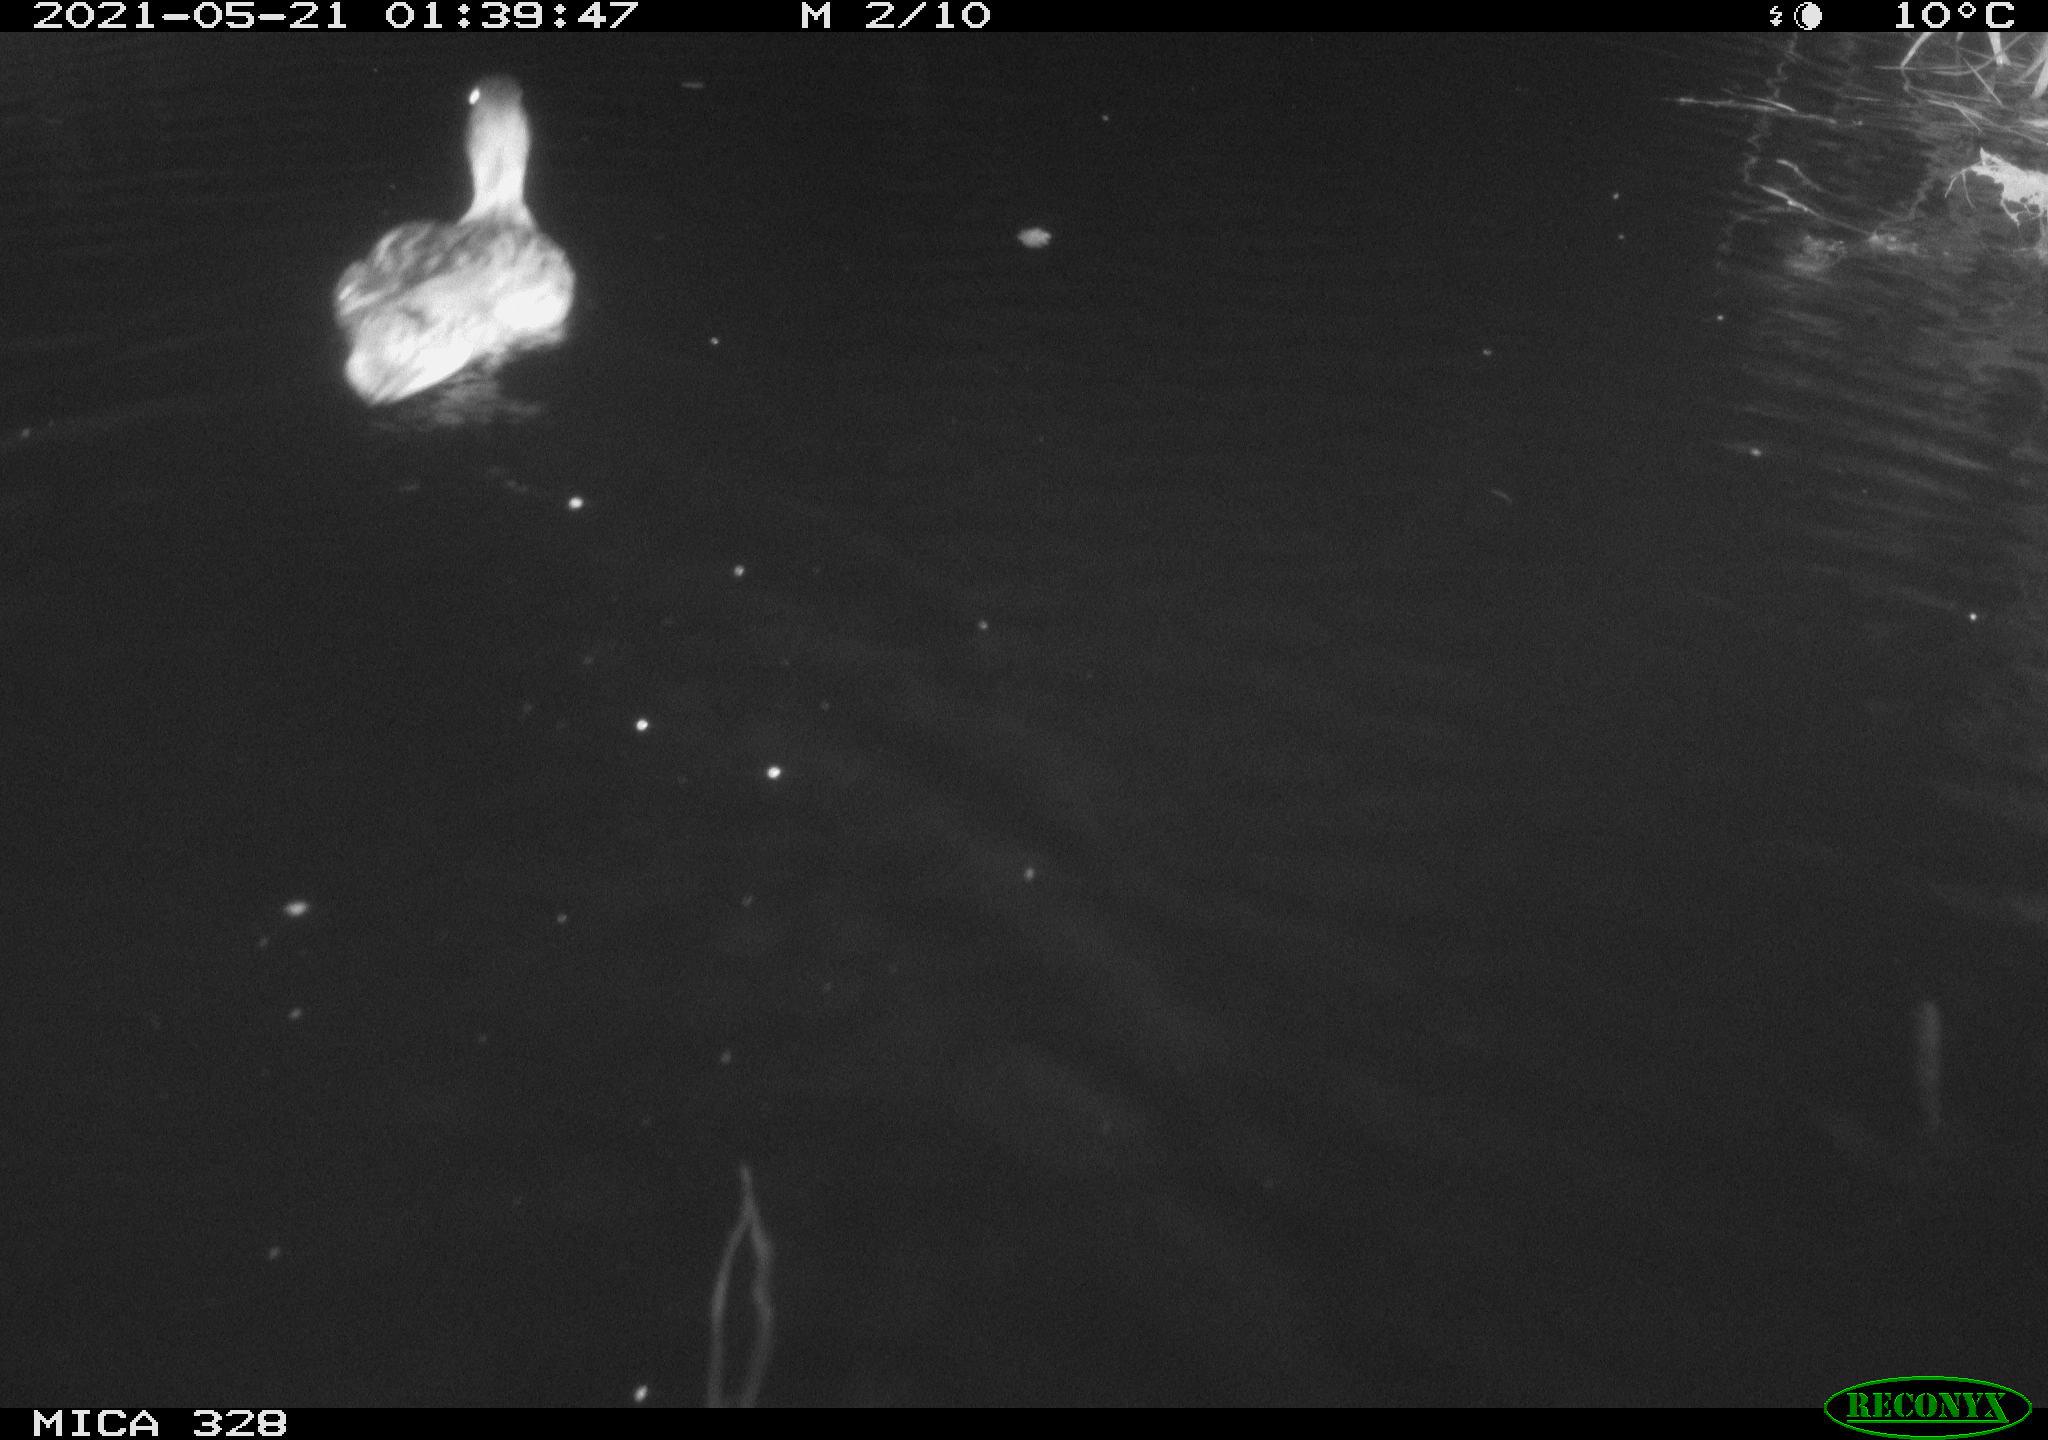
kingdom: Animalia
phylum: Chordata
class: Aves
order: Anseriformes
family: Anatidae
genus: Anas
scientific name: Anas
